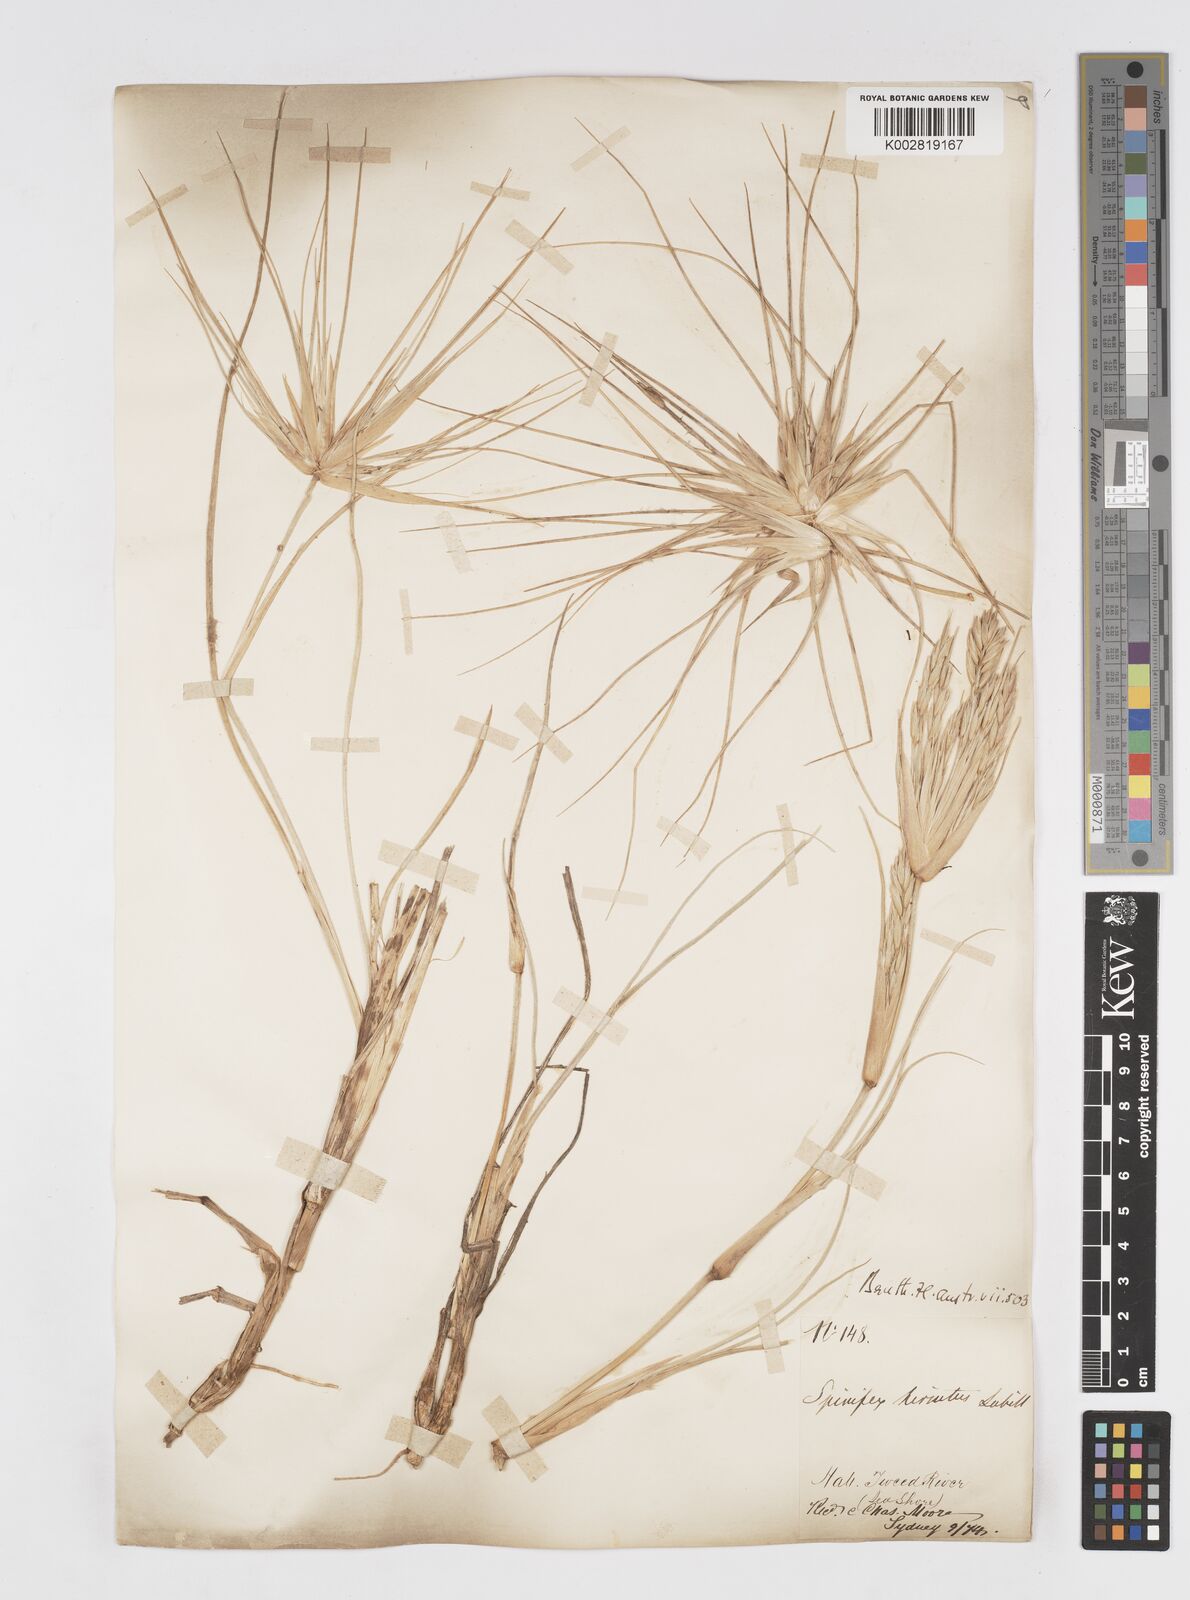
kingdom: Plantae
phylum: Tracheophyta
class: Liliopsida
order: Poales
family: Poaceae
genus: Spinifex
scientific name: Spinifex hirsutus
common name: Hairy spinifex
